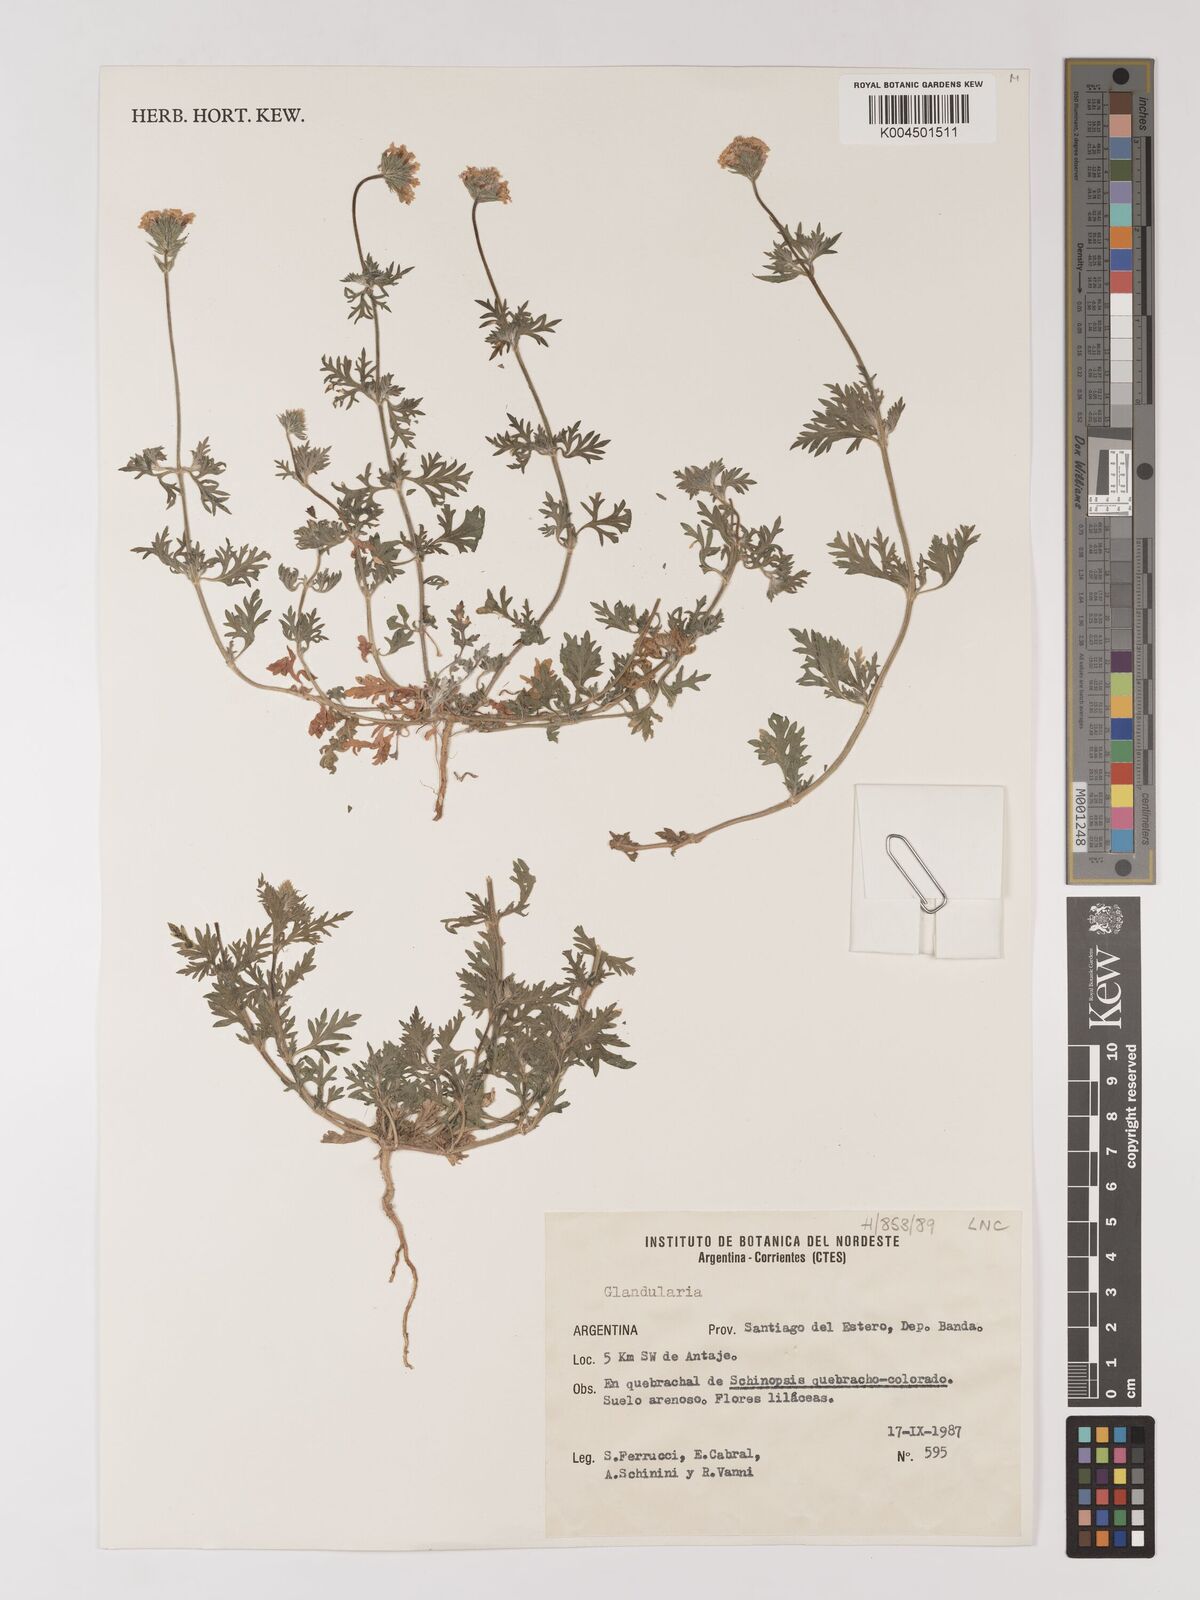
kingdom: Plantae
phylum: Tracheophyta
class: Magnoliopsida
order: Lamiales
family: Verbenaceae
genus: Verbena
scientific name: Verbena
